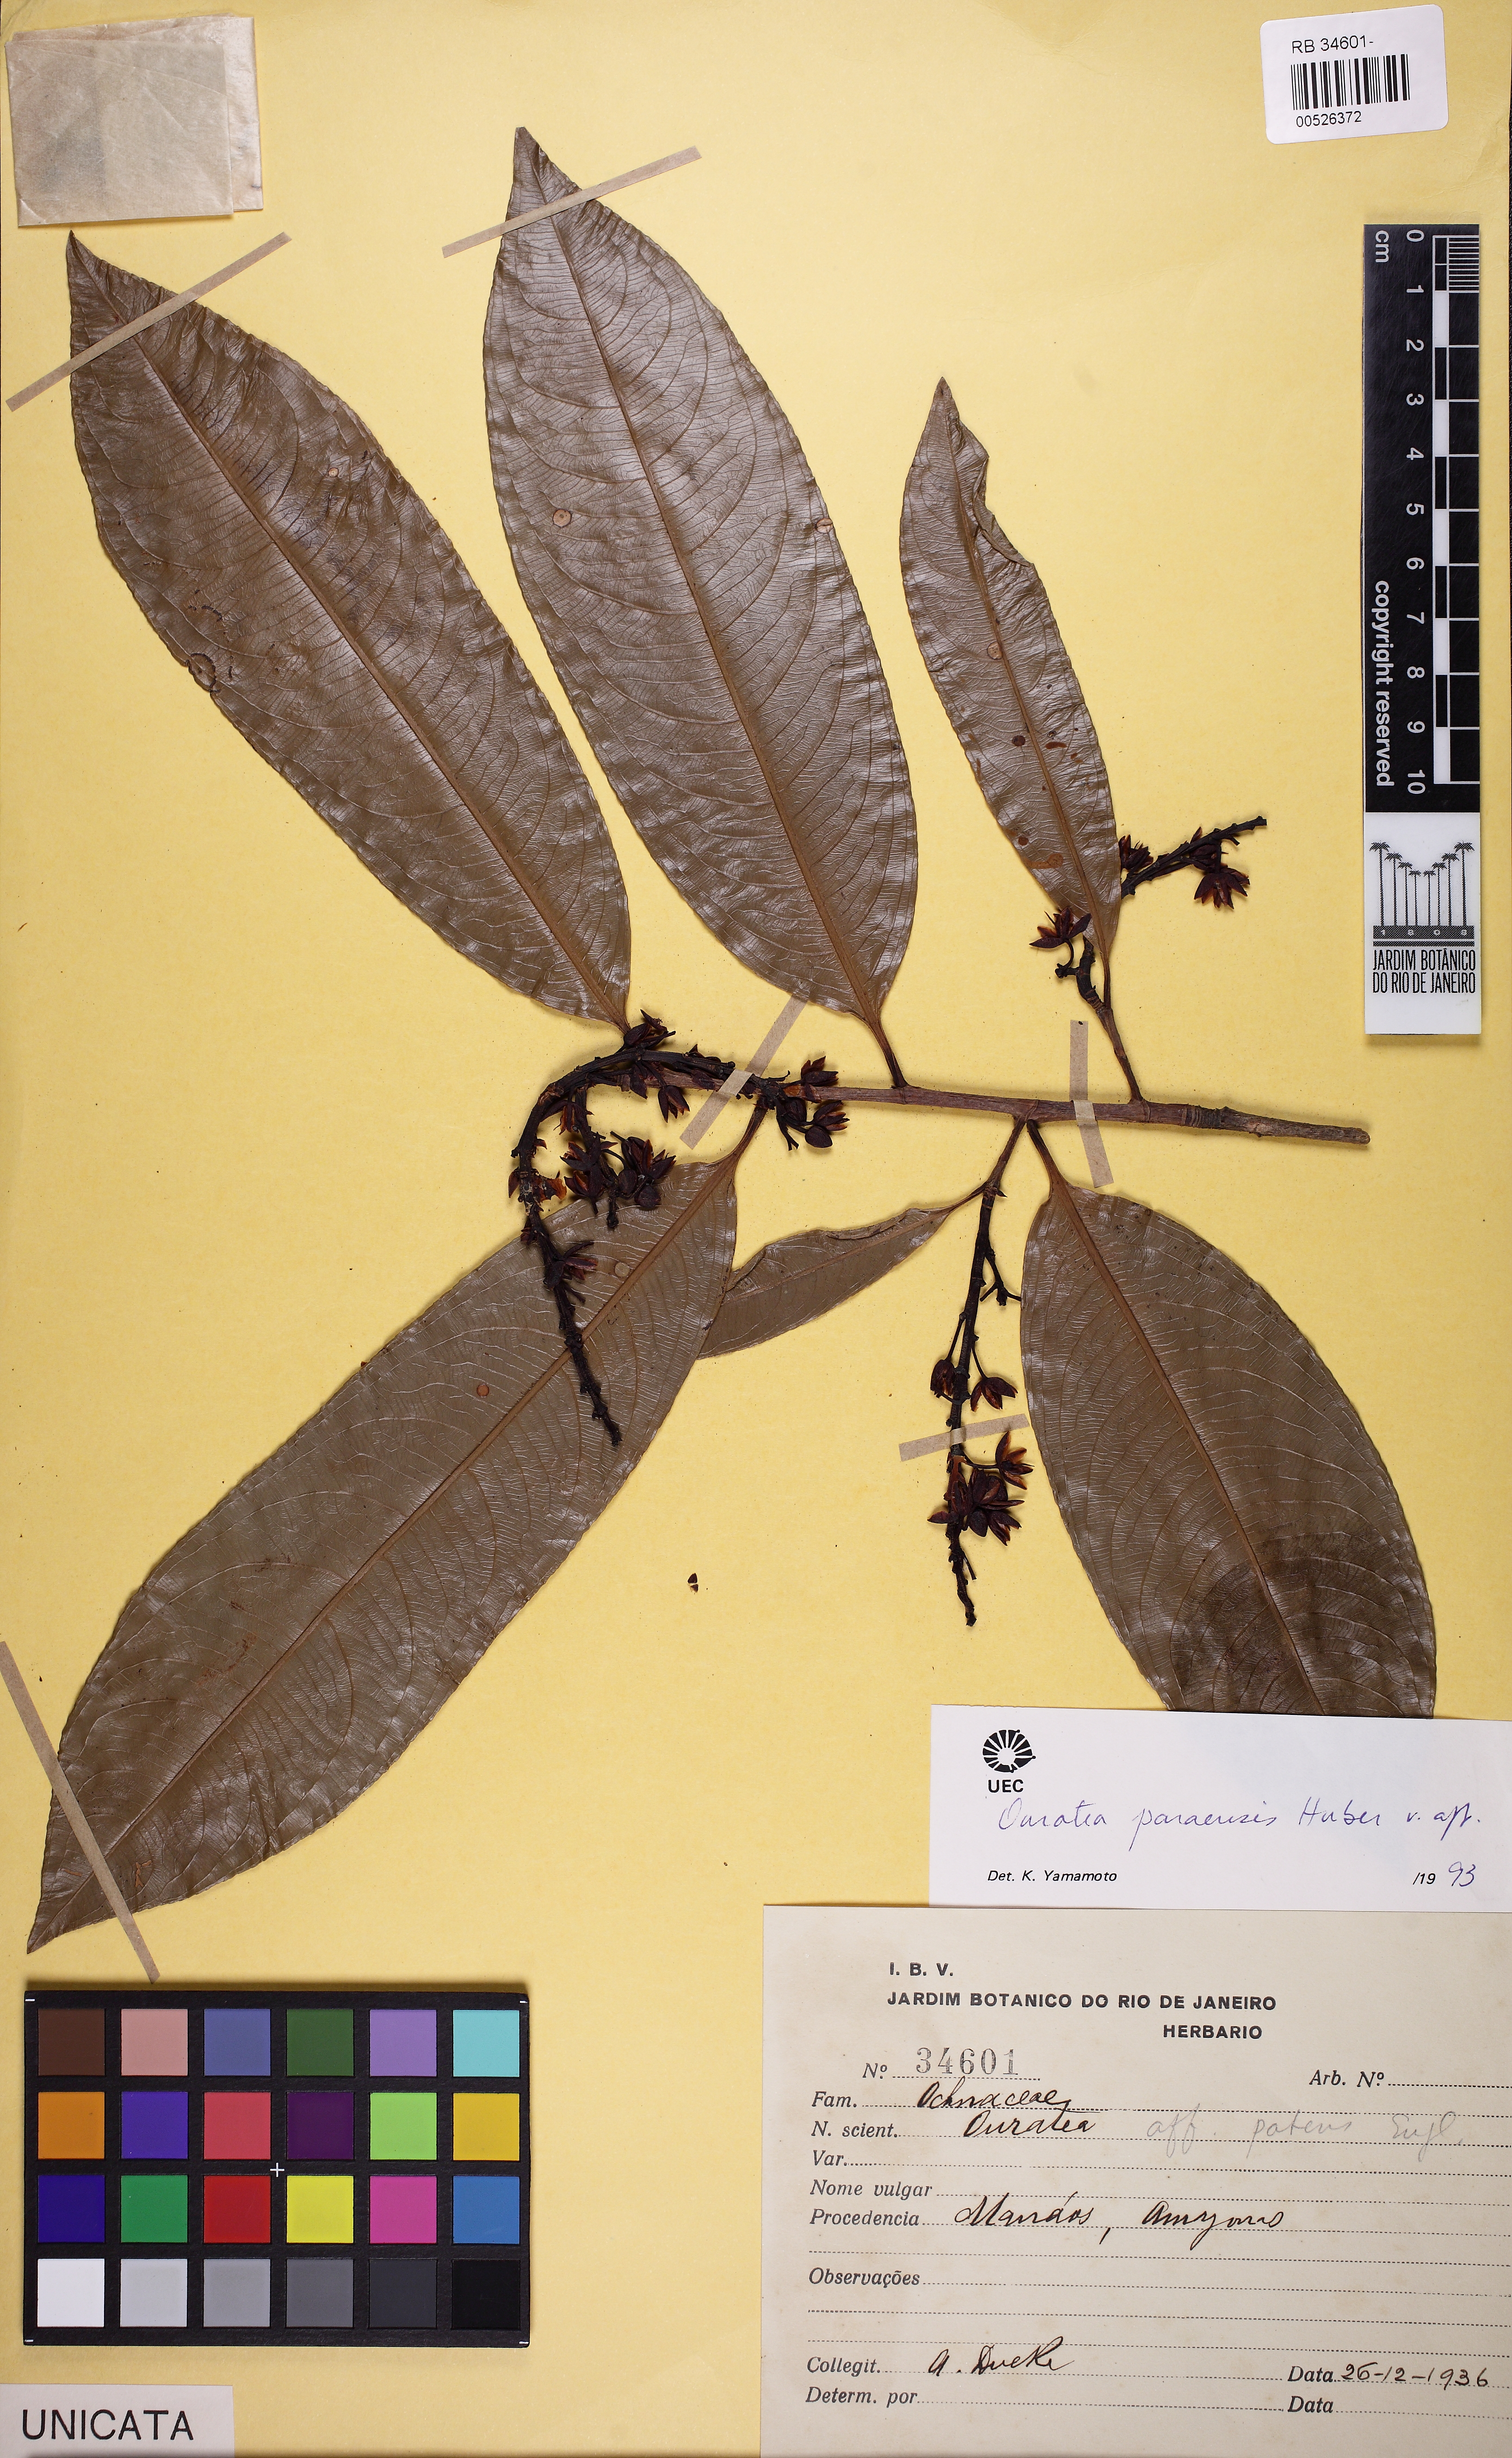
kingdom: Plantae
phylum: Tracheophyta
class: Magnoliopsida
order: Malpighiales
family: Ochnaceae
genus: Ouratea
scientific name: Ouratea paraensis
